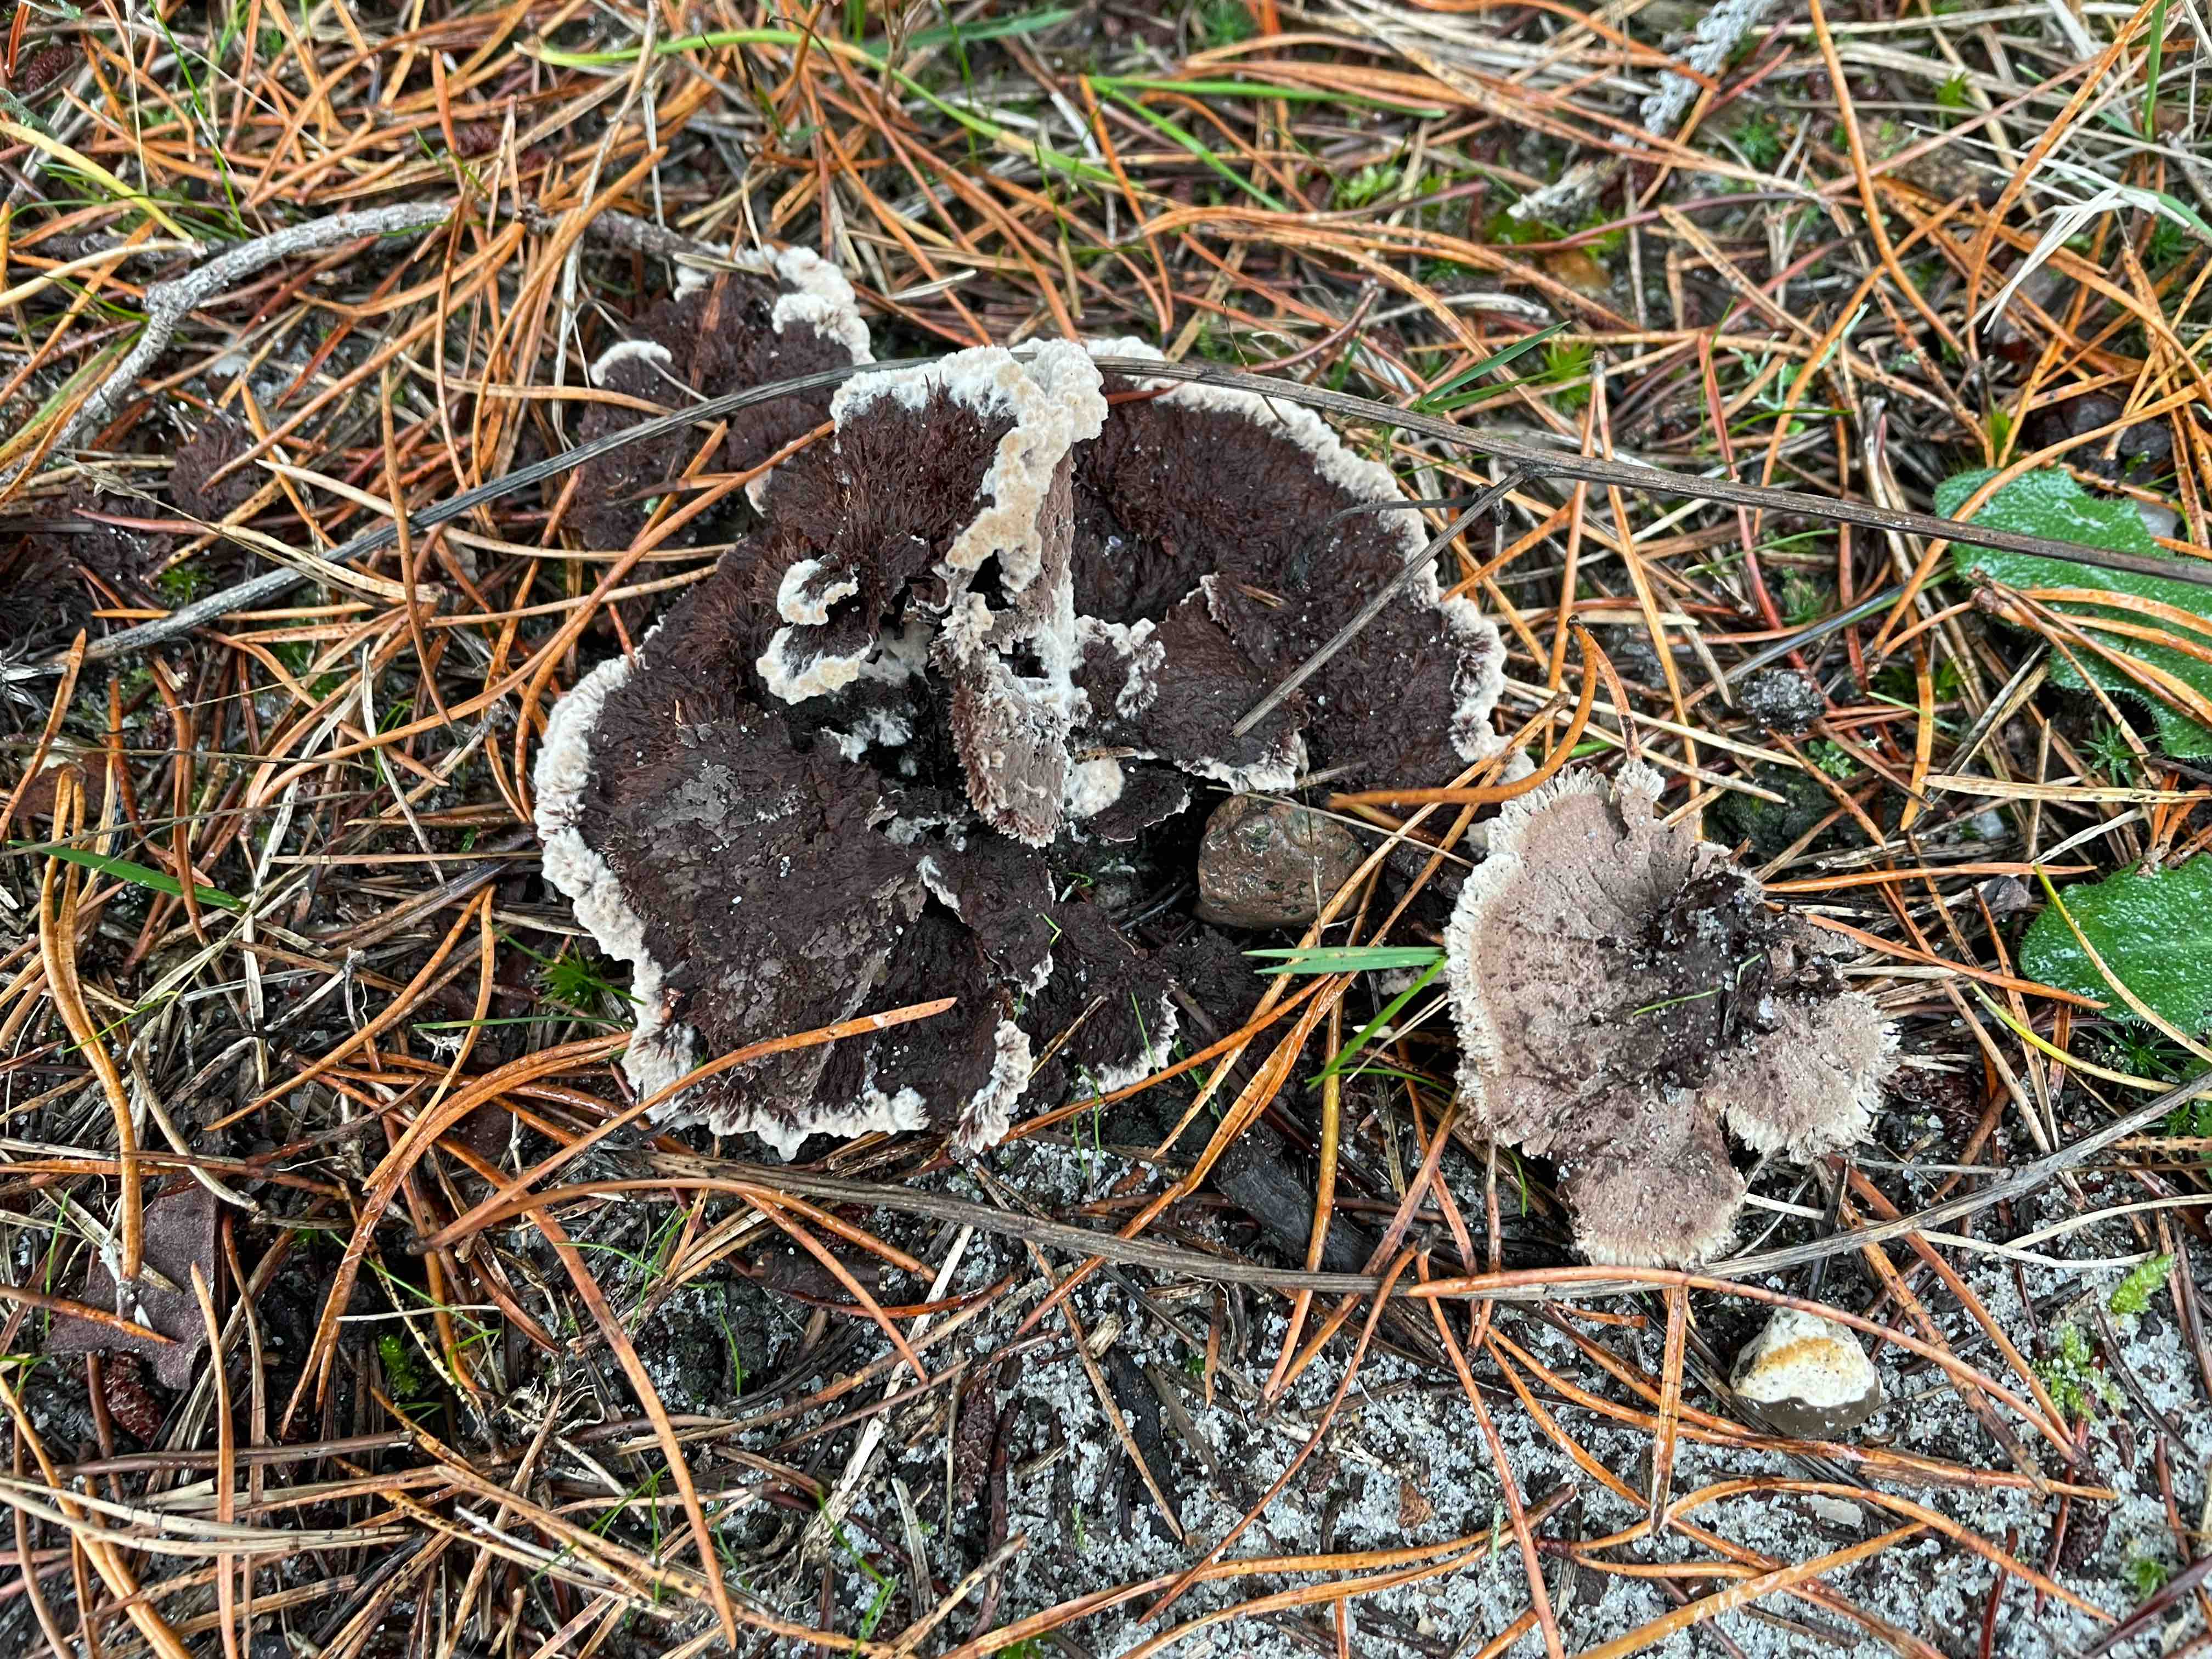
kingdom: Fungi
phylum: Basidiomycota
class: Agaricomycetes
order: Thelephorales
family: Thelephoraceae
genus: Thelephora
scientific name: Thelephora terrestris
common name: fliget frynsesvamp
